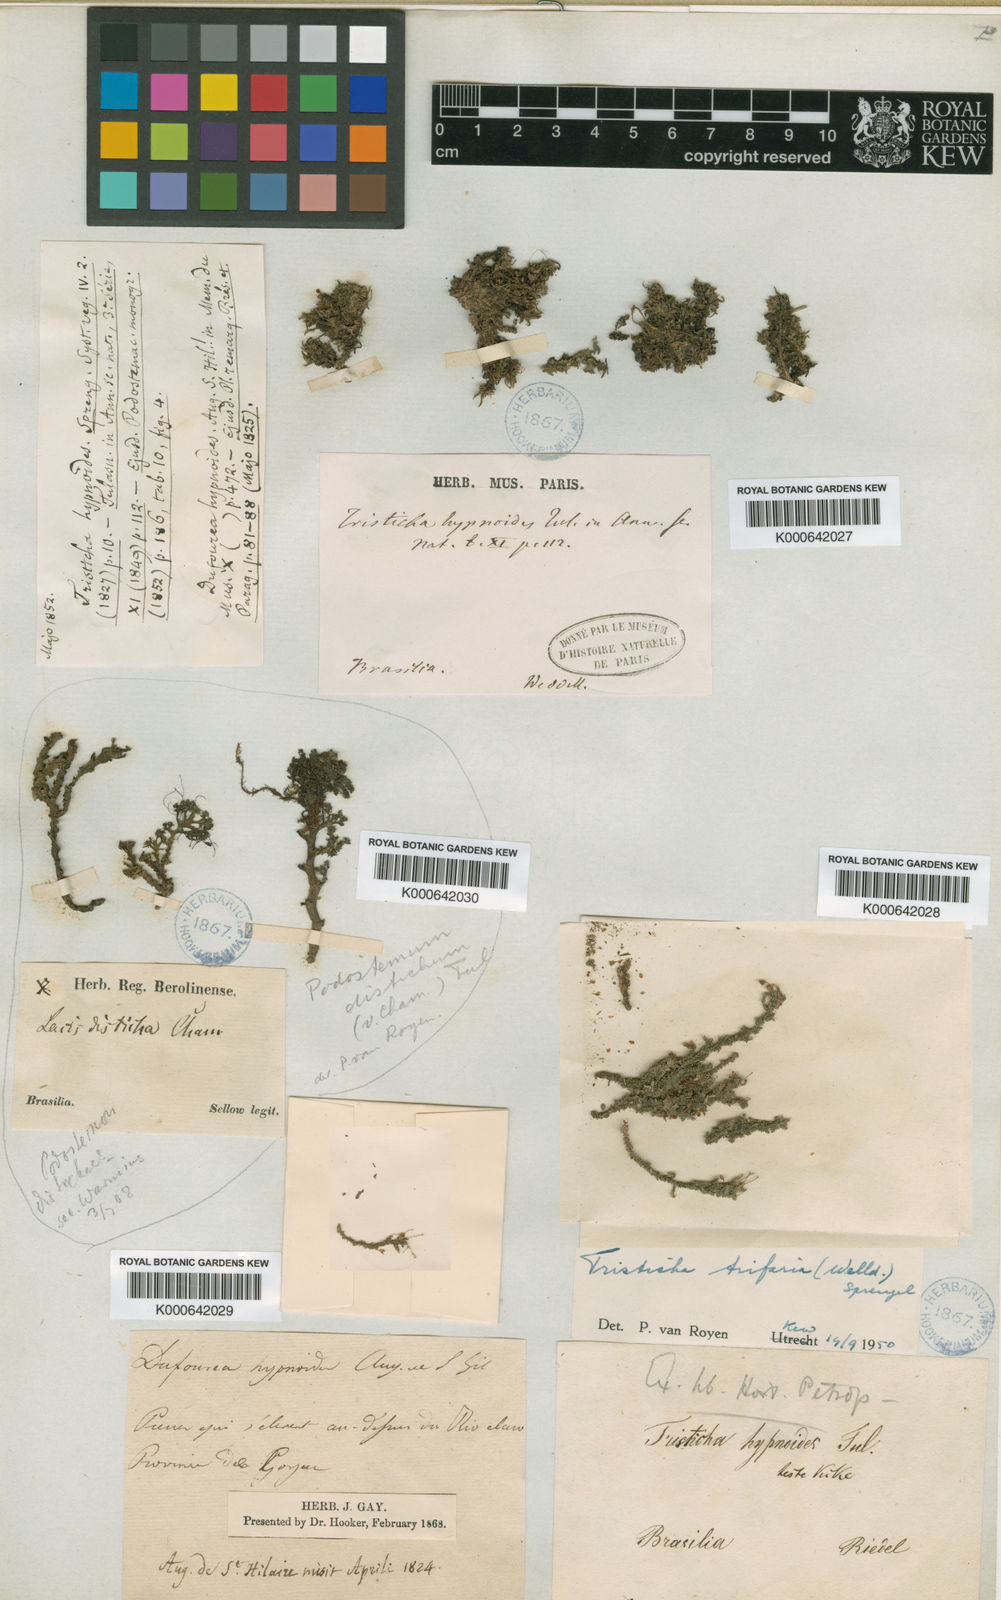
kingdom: Plantae
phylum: Tracheophyta
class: Magnoliopsida
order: Malpighiales
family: Podostemaceae
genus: Tristicha
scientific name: Tristicha trifaria
